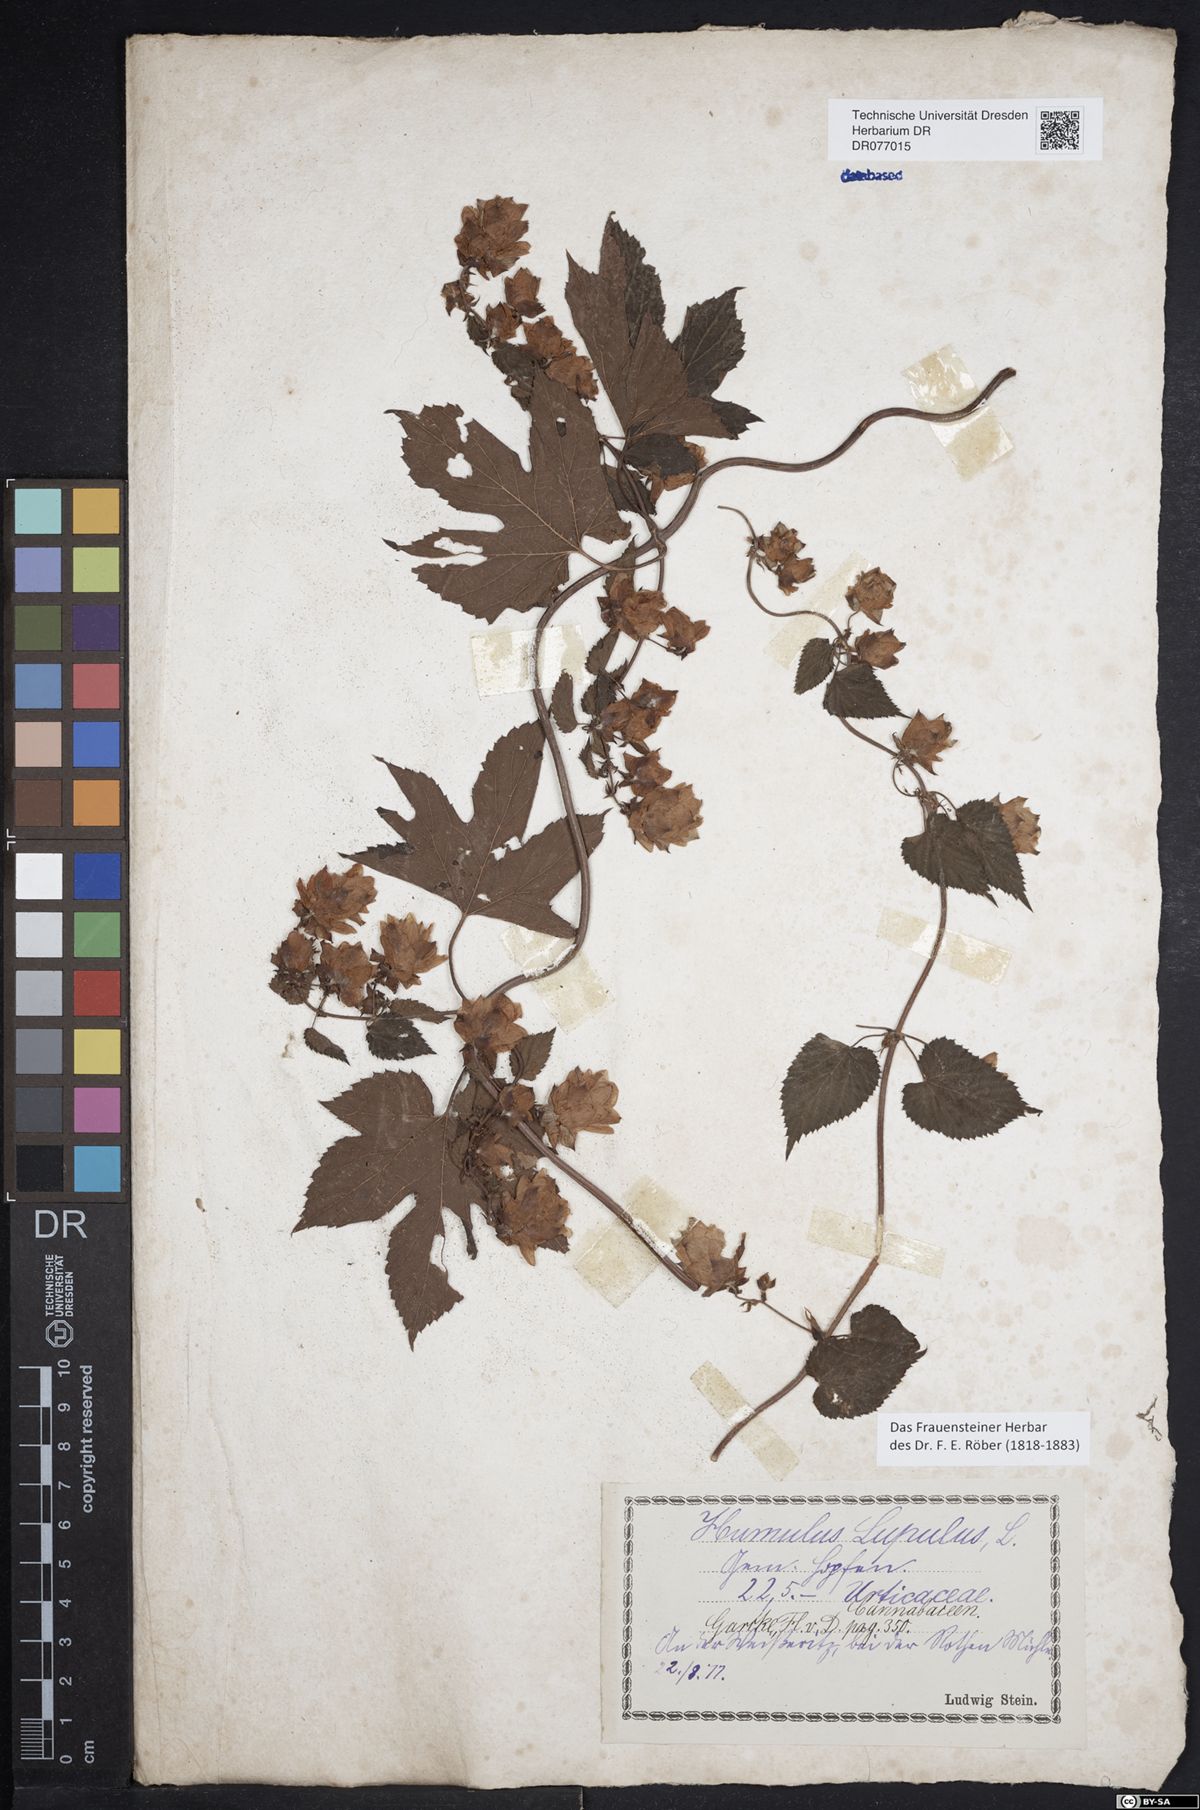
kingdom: Plantae
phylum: Tracheophyta
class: Magnoliopsida
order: Rosales
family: Cannabaceae
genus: Humulus
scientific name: Humulus lupulus
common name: Hop
